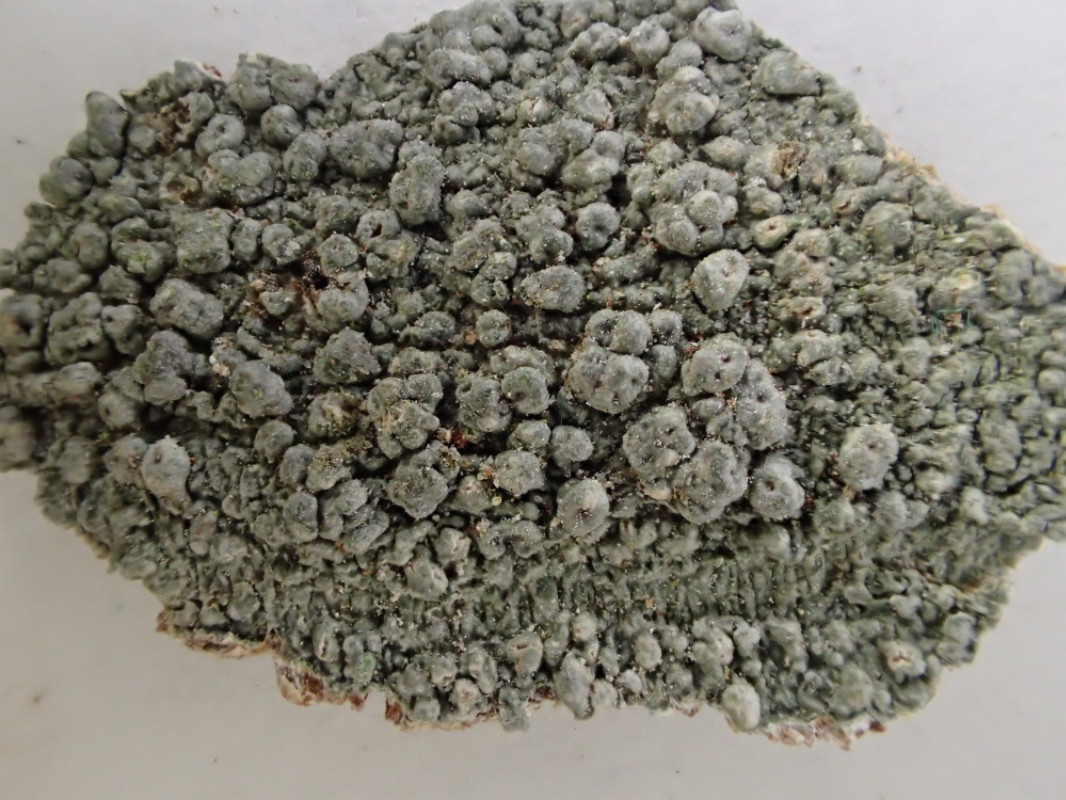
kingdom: Fungi
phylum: Ascomycota
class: Lecanoromycetes
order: Pertusariales
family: Pertusariaceae
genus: Pertusaria
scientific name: Pertusaria pertusa
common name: almindelig prikvortelav
